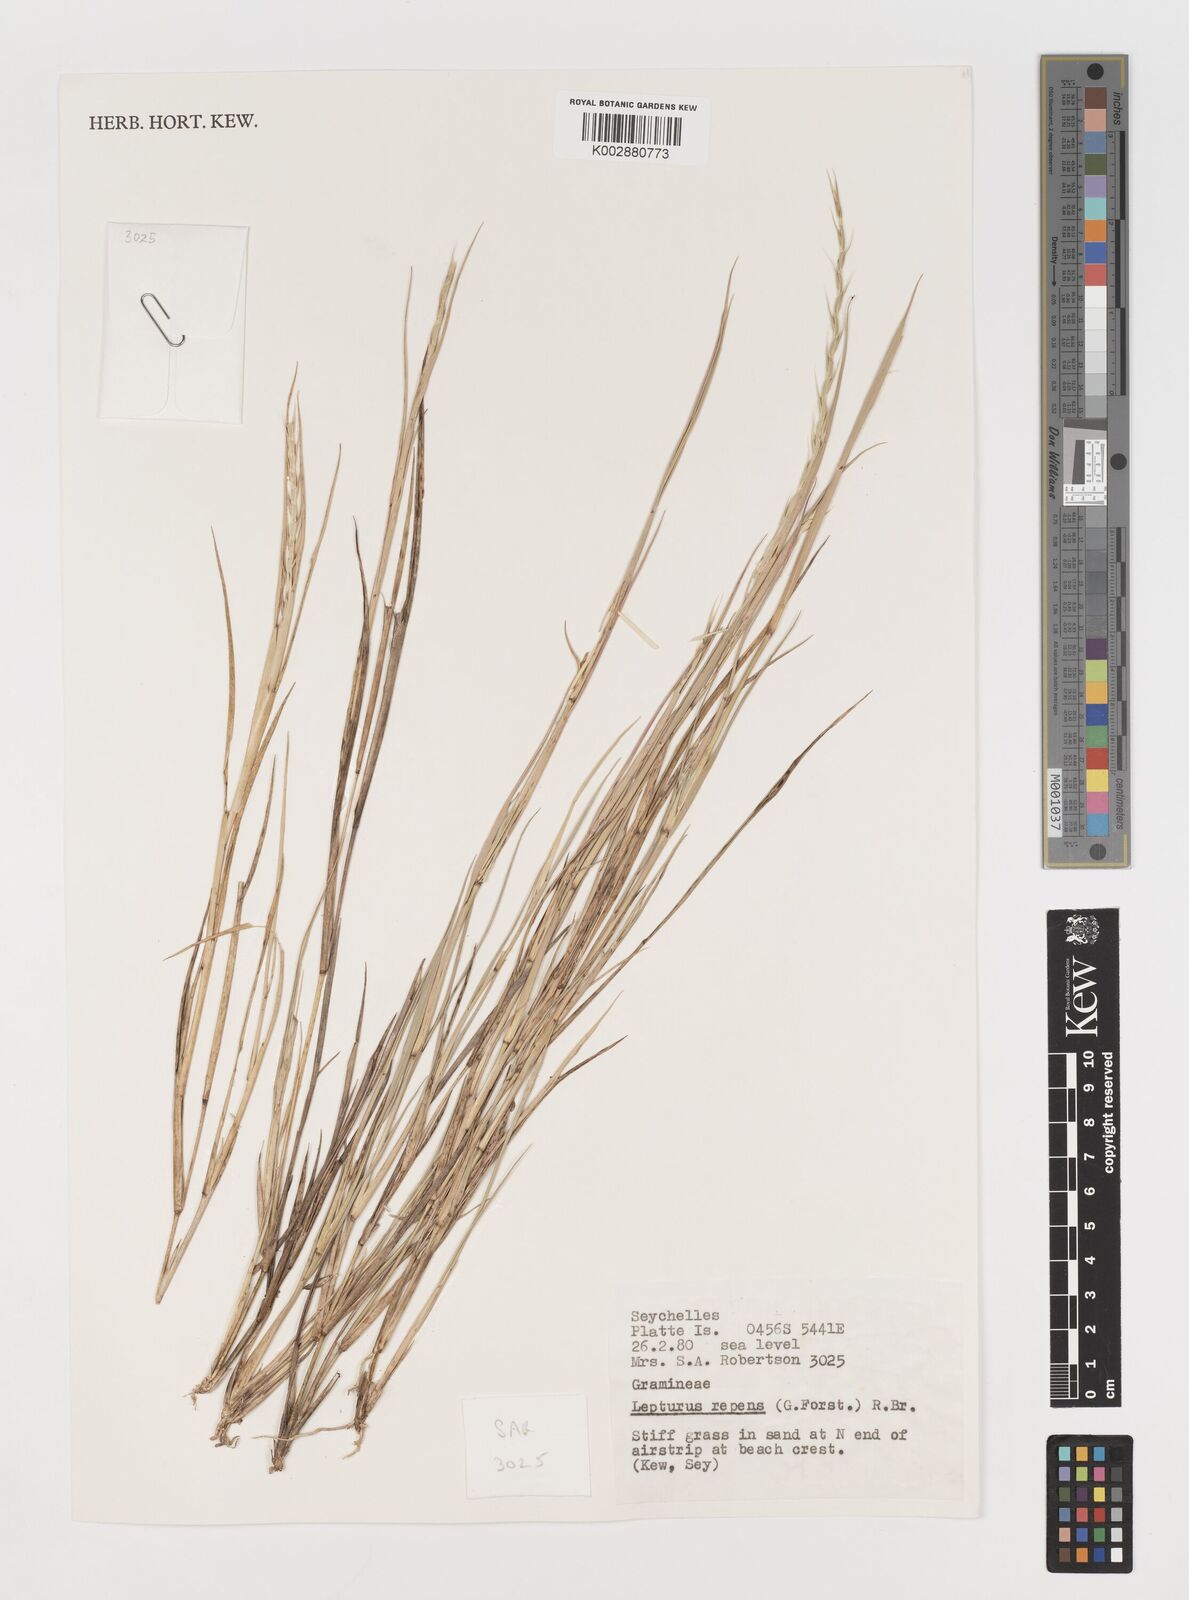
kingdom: Plantae
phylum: Tracheophyta
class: Liliopsida
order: Poales
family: Poaceae
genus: Lepturus
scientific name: Lepturus repens
